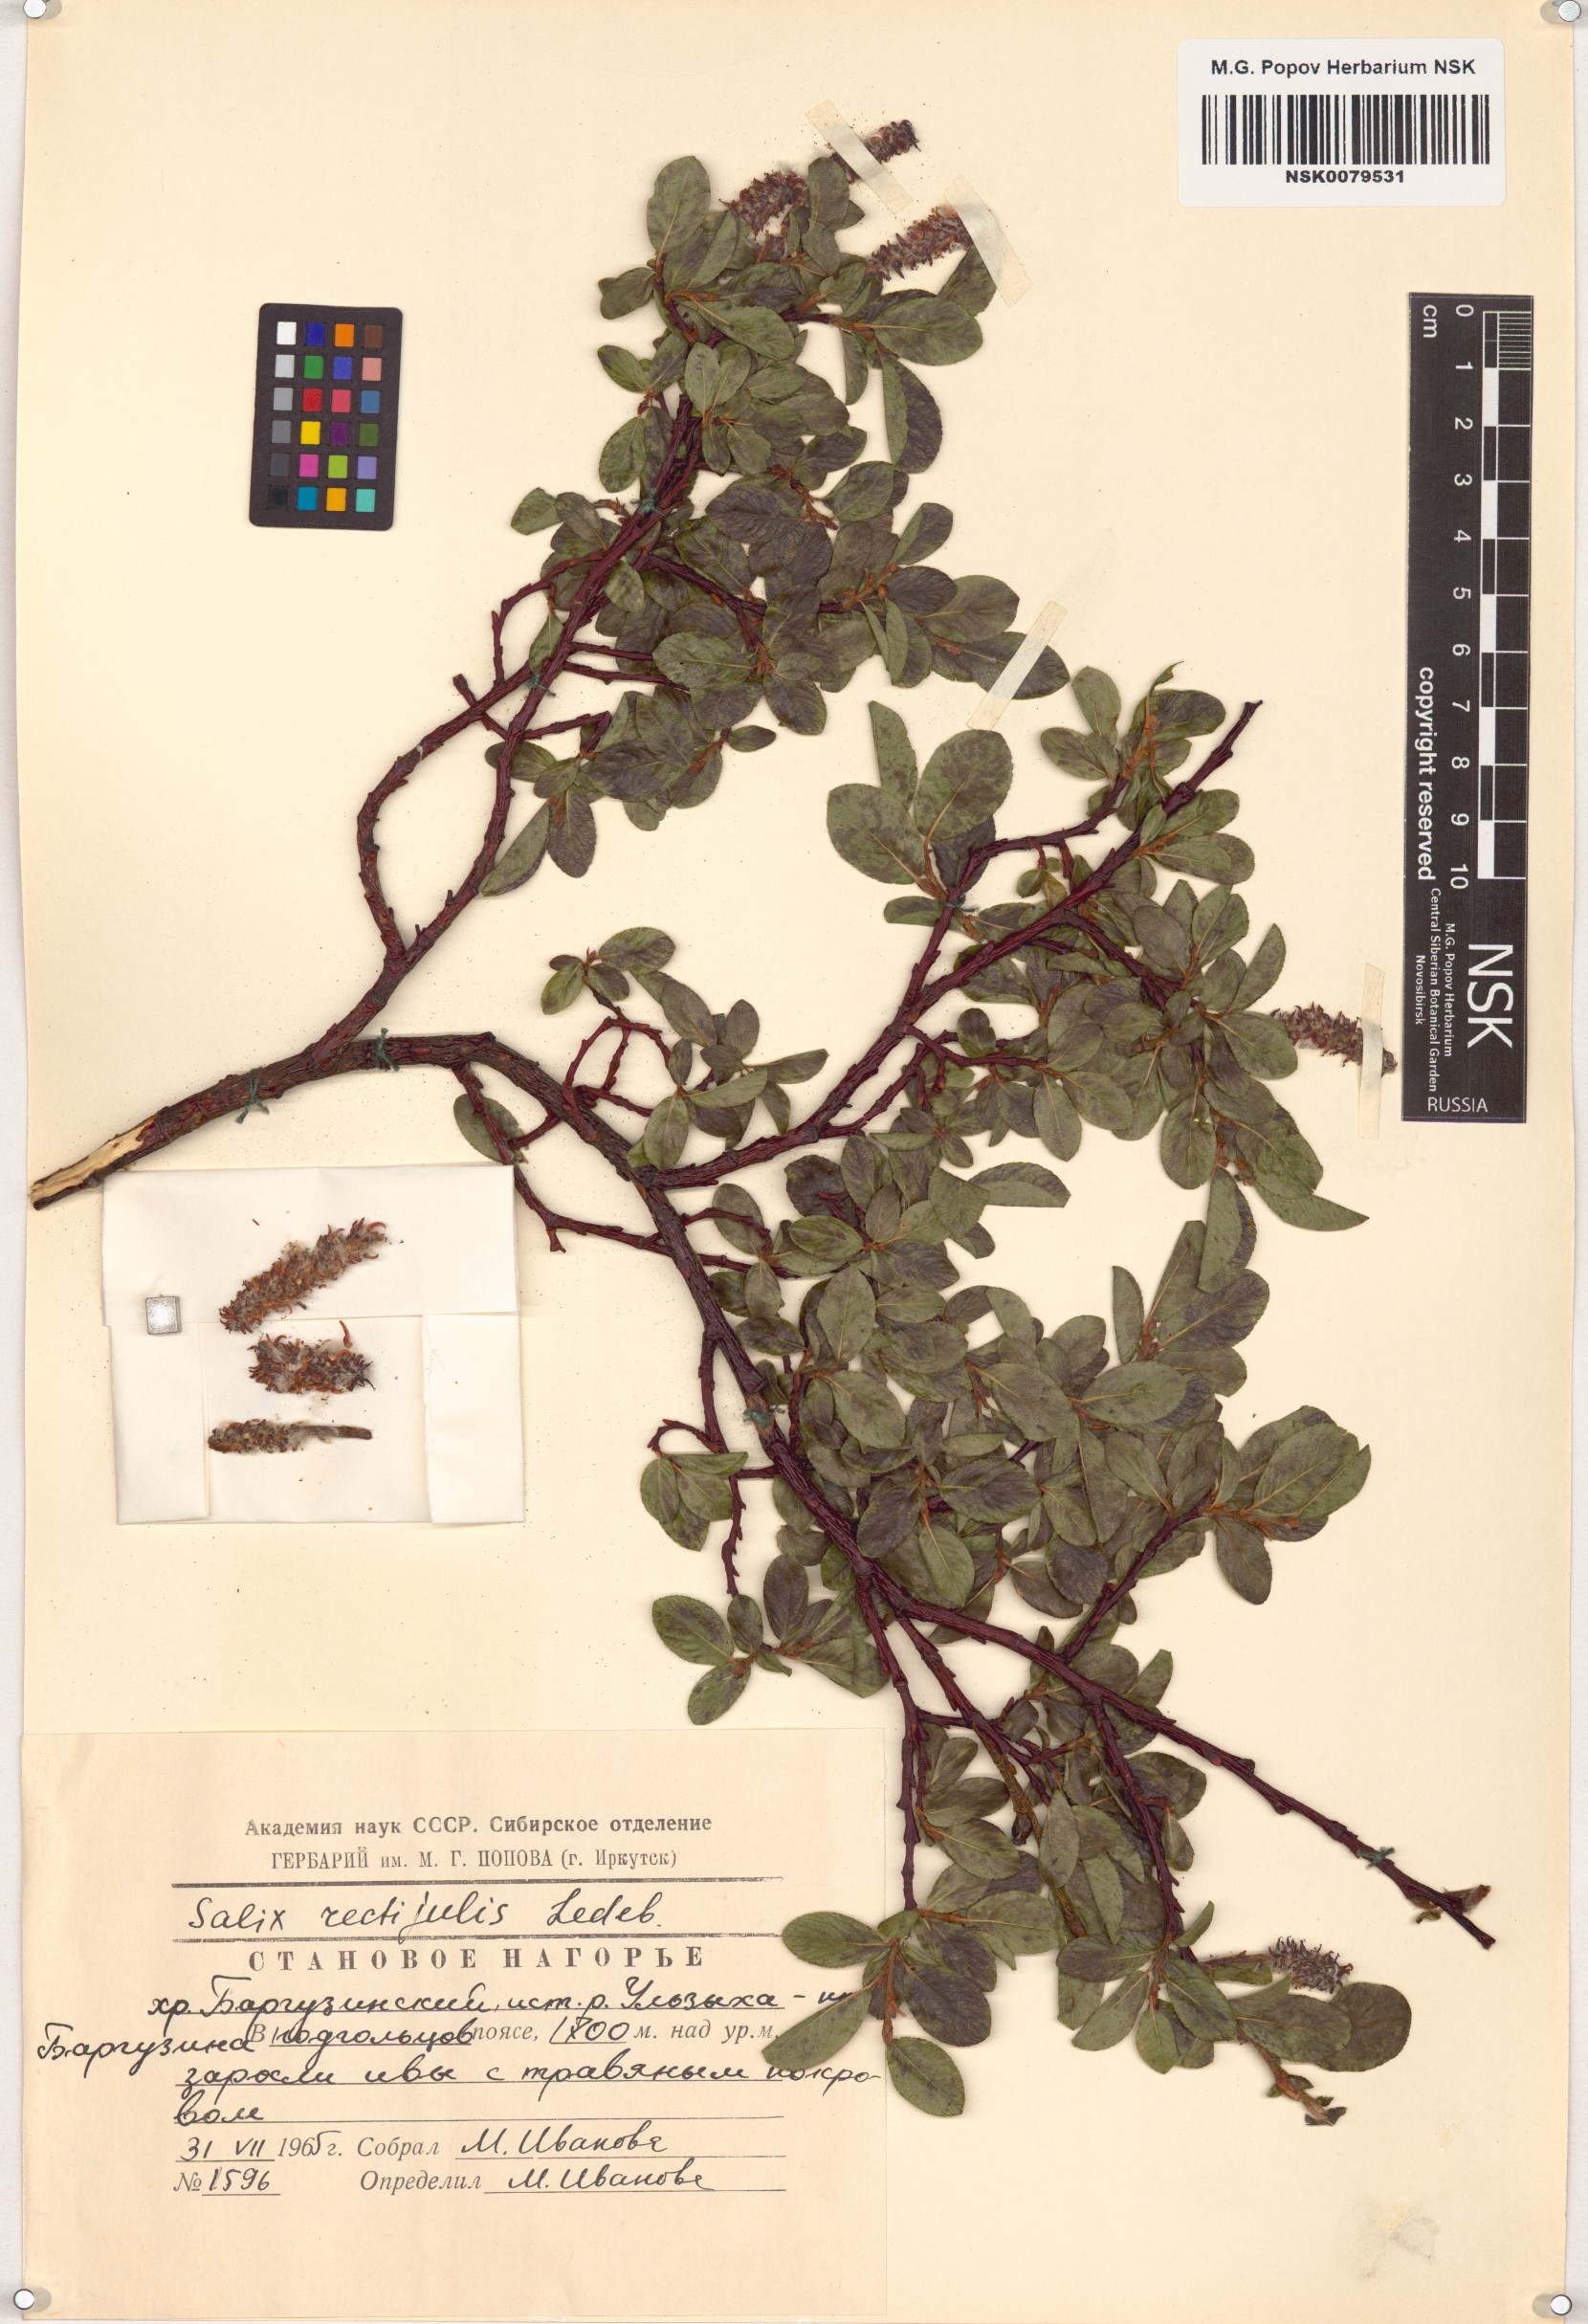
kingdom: Plantae
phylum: Tracheophyta
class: Magnoliopsida
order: Malpighiales
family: Salicaceae
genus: Salix
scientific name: Salix rectijulis
